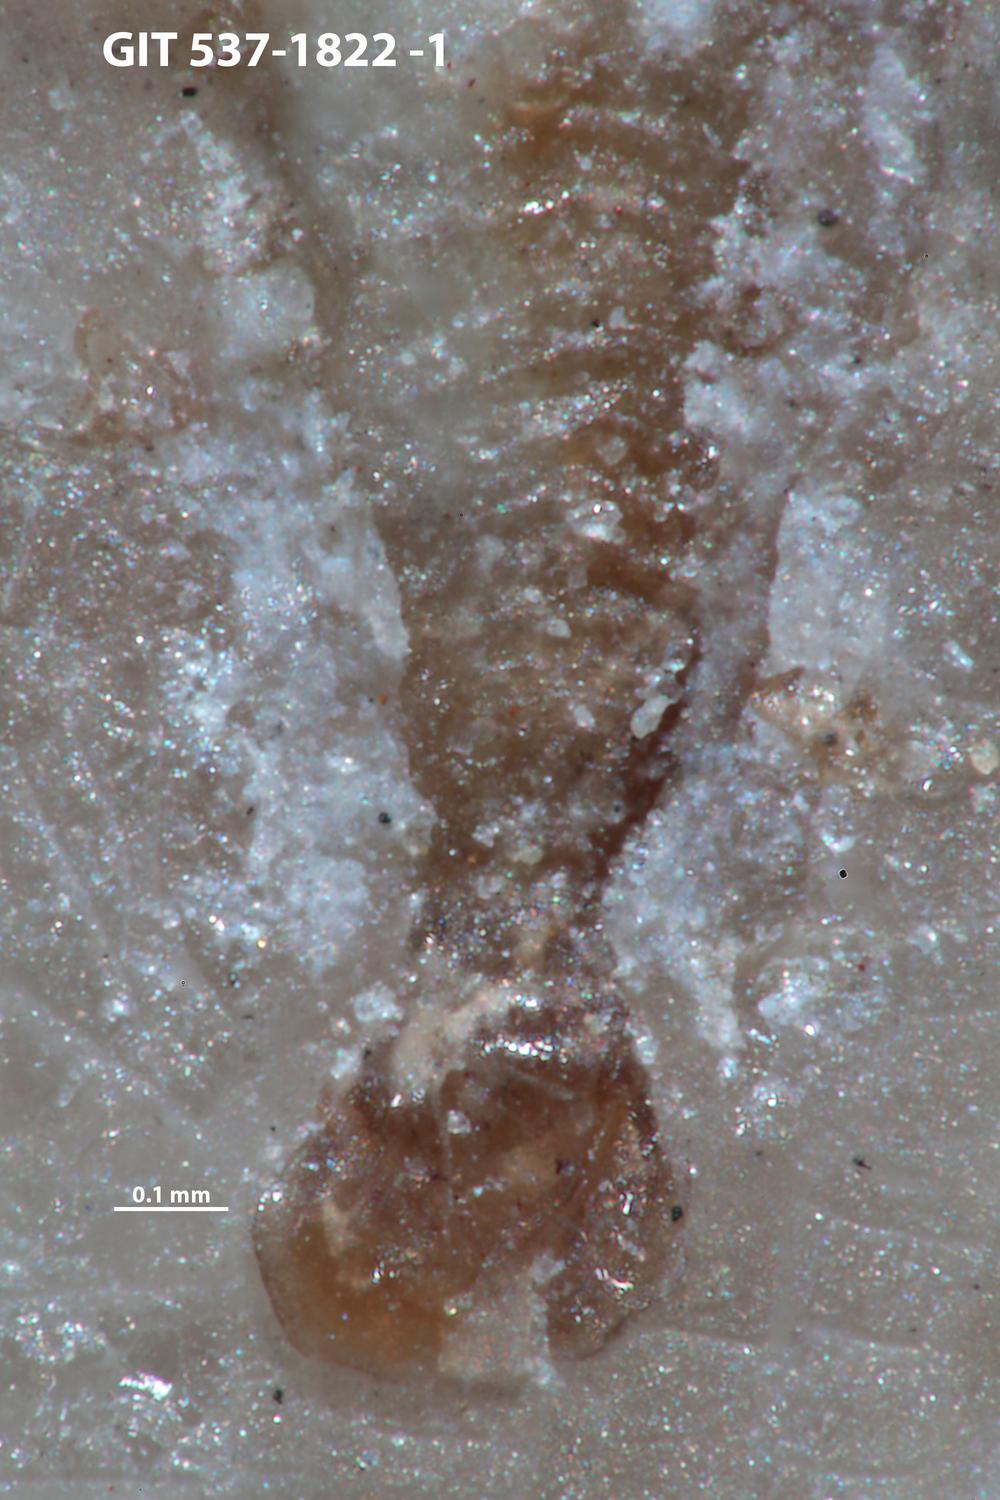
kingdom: Animalia
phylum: Cnidaria
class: Scyphozoa
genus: Climacoconus
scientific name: Climacoconus
